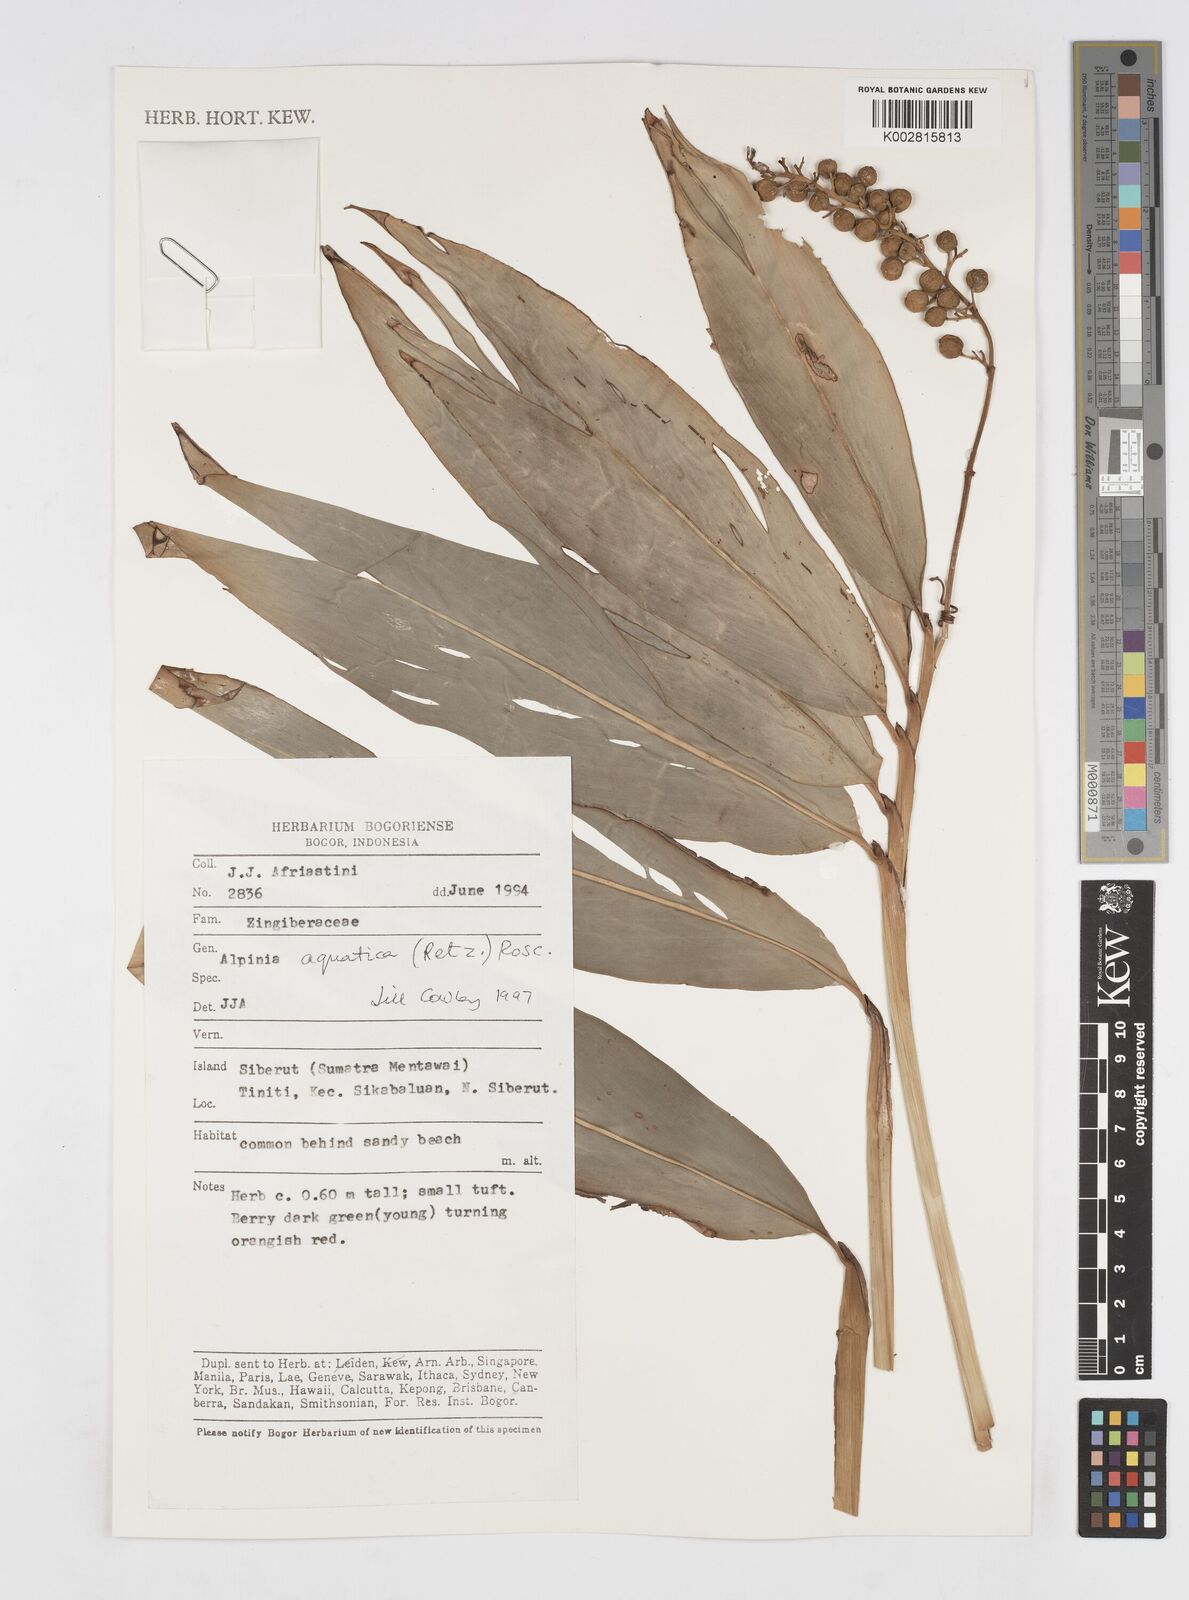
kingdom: Plantae
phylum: Tracheophyta
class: Liliopsida
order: Zingiberales
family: Zingiberaceae
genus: Alpinia
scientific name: Alpinia aquatica
